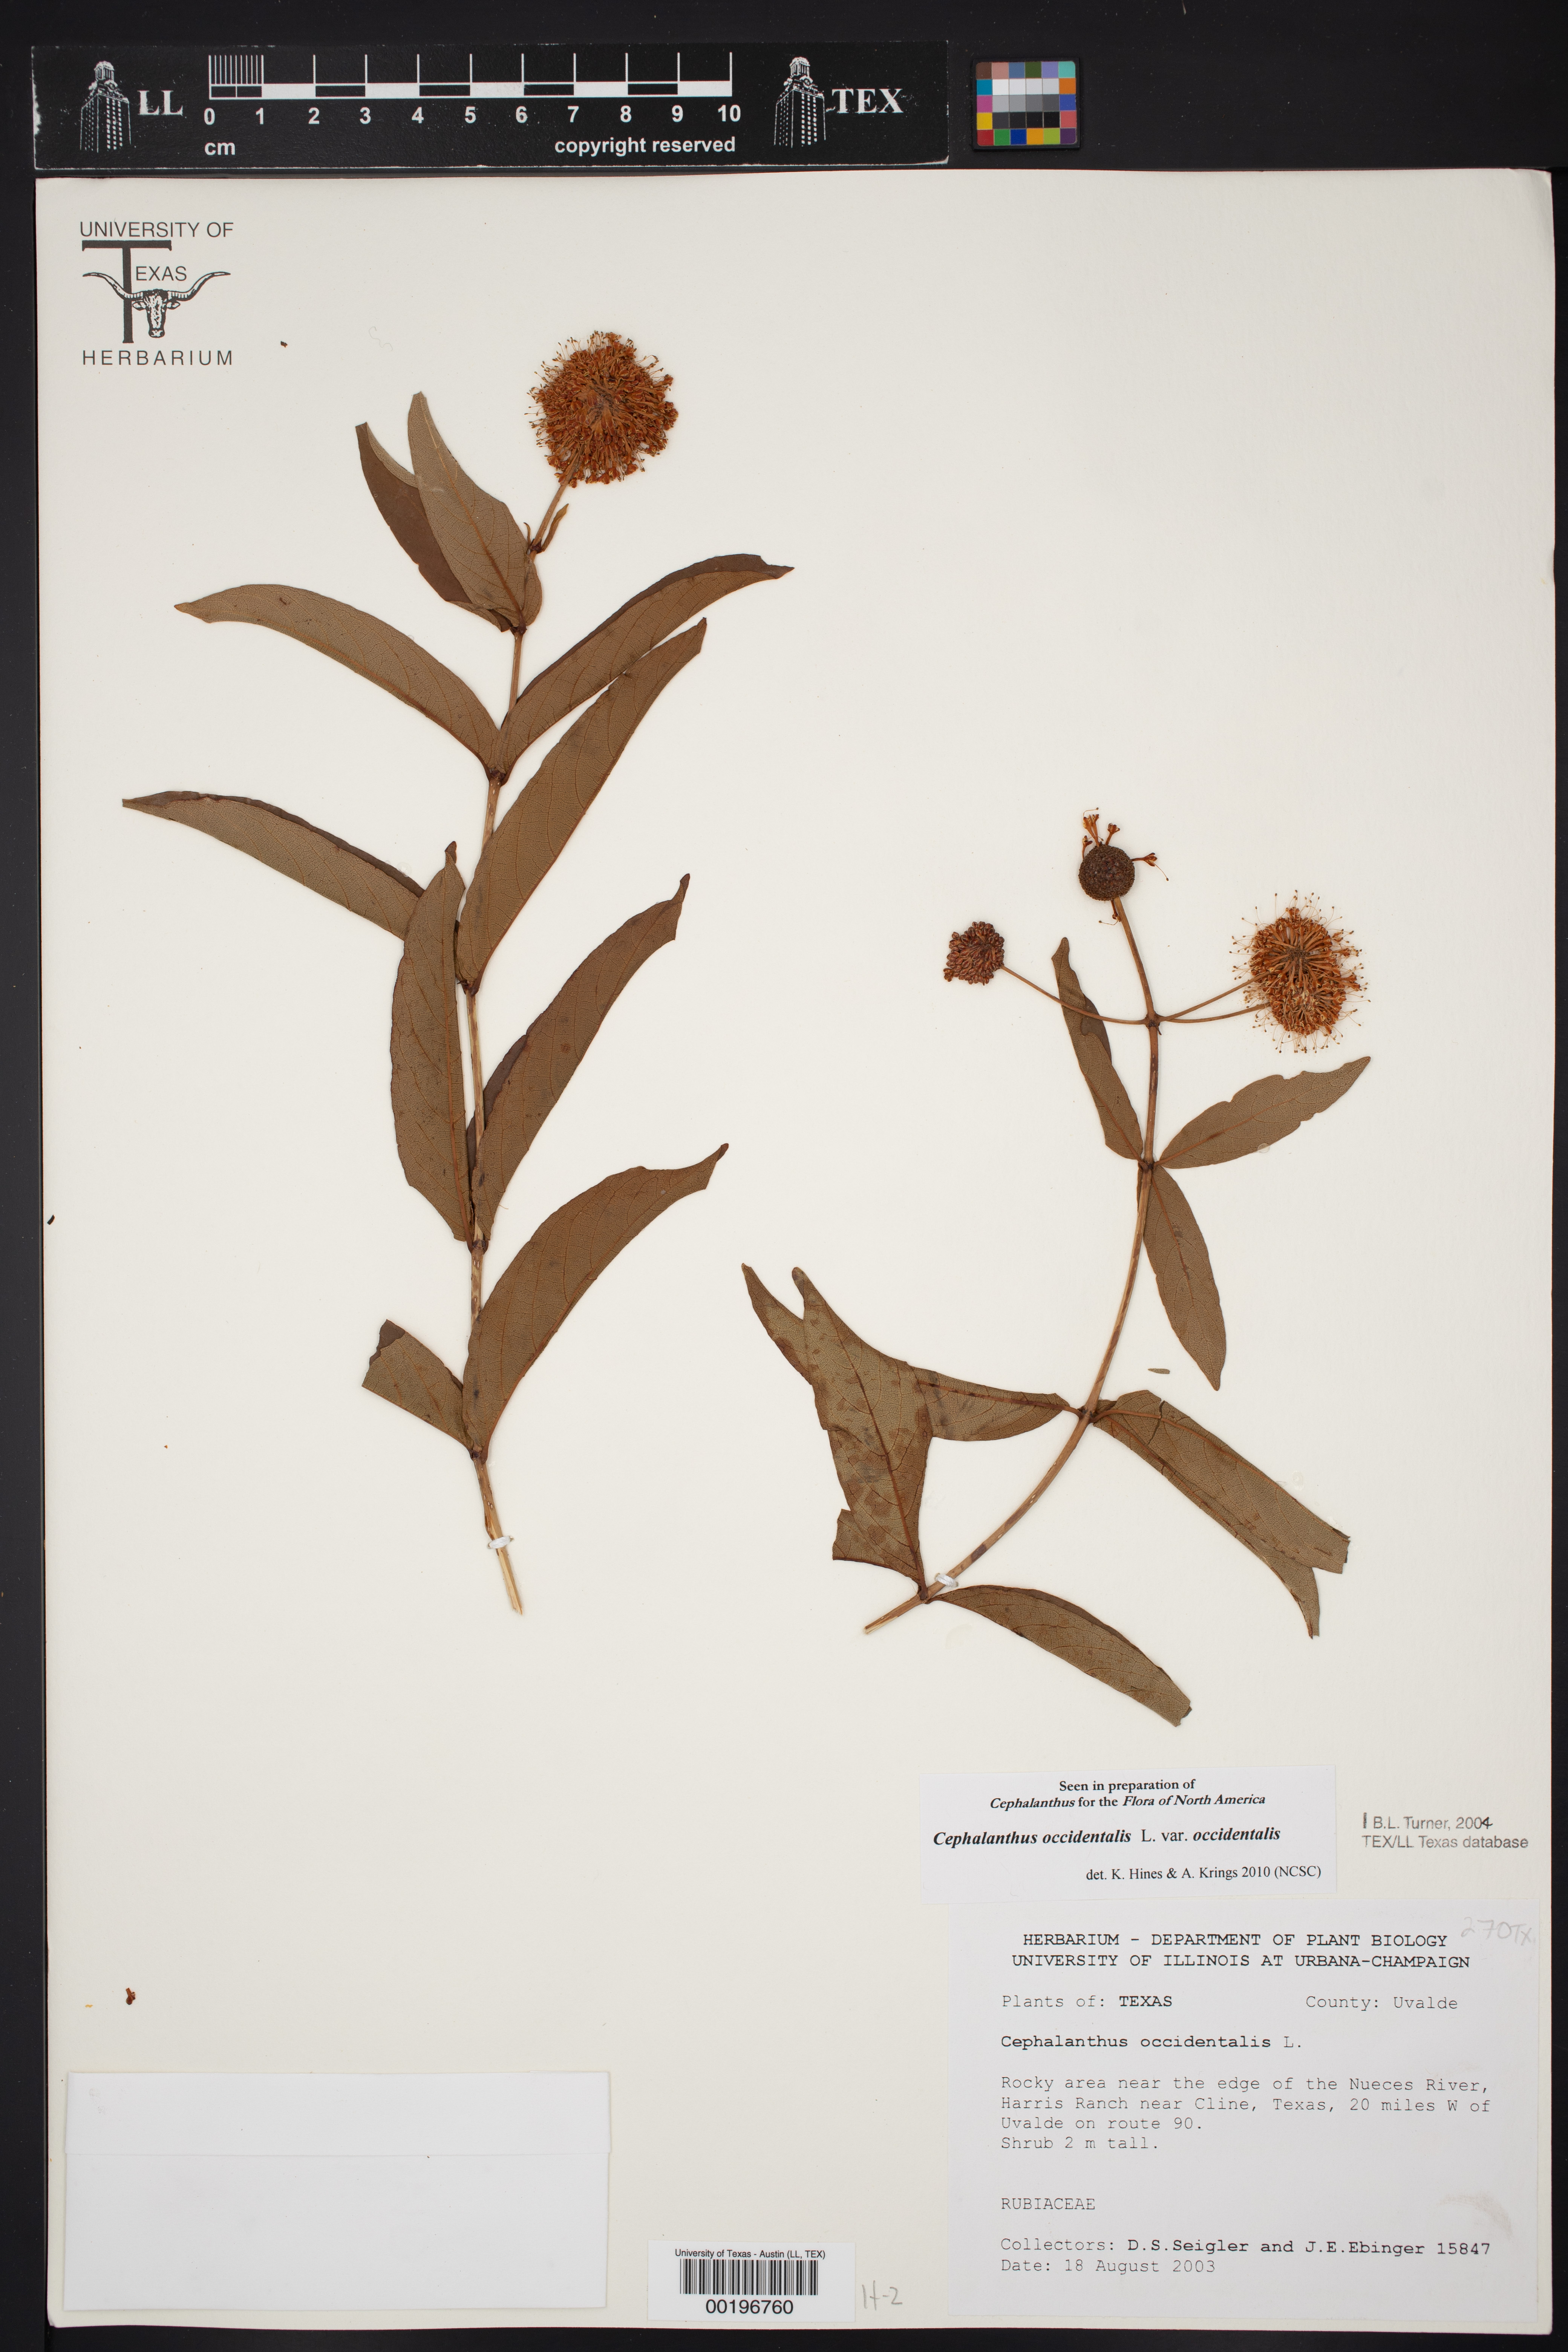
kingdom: Plantae
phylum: Tracheophyta
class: Magnoliopsida
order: Gentianales
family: Rubiaceae
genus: Cephalanthus
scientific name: Cephalanthus occidentalis
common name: Button-willow
